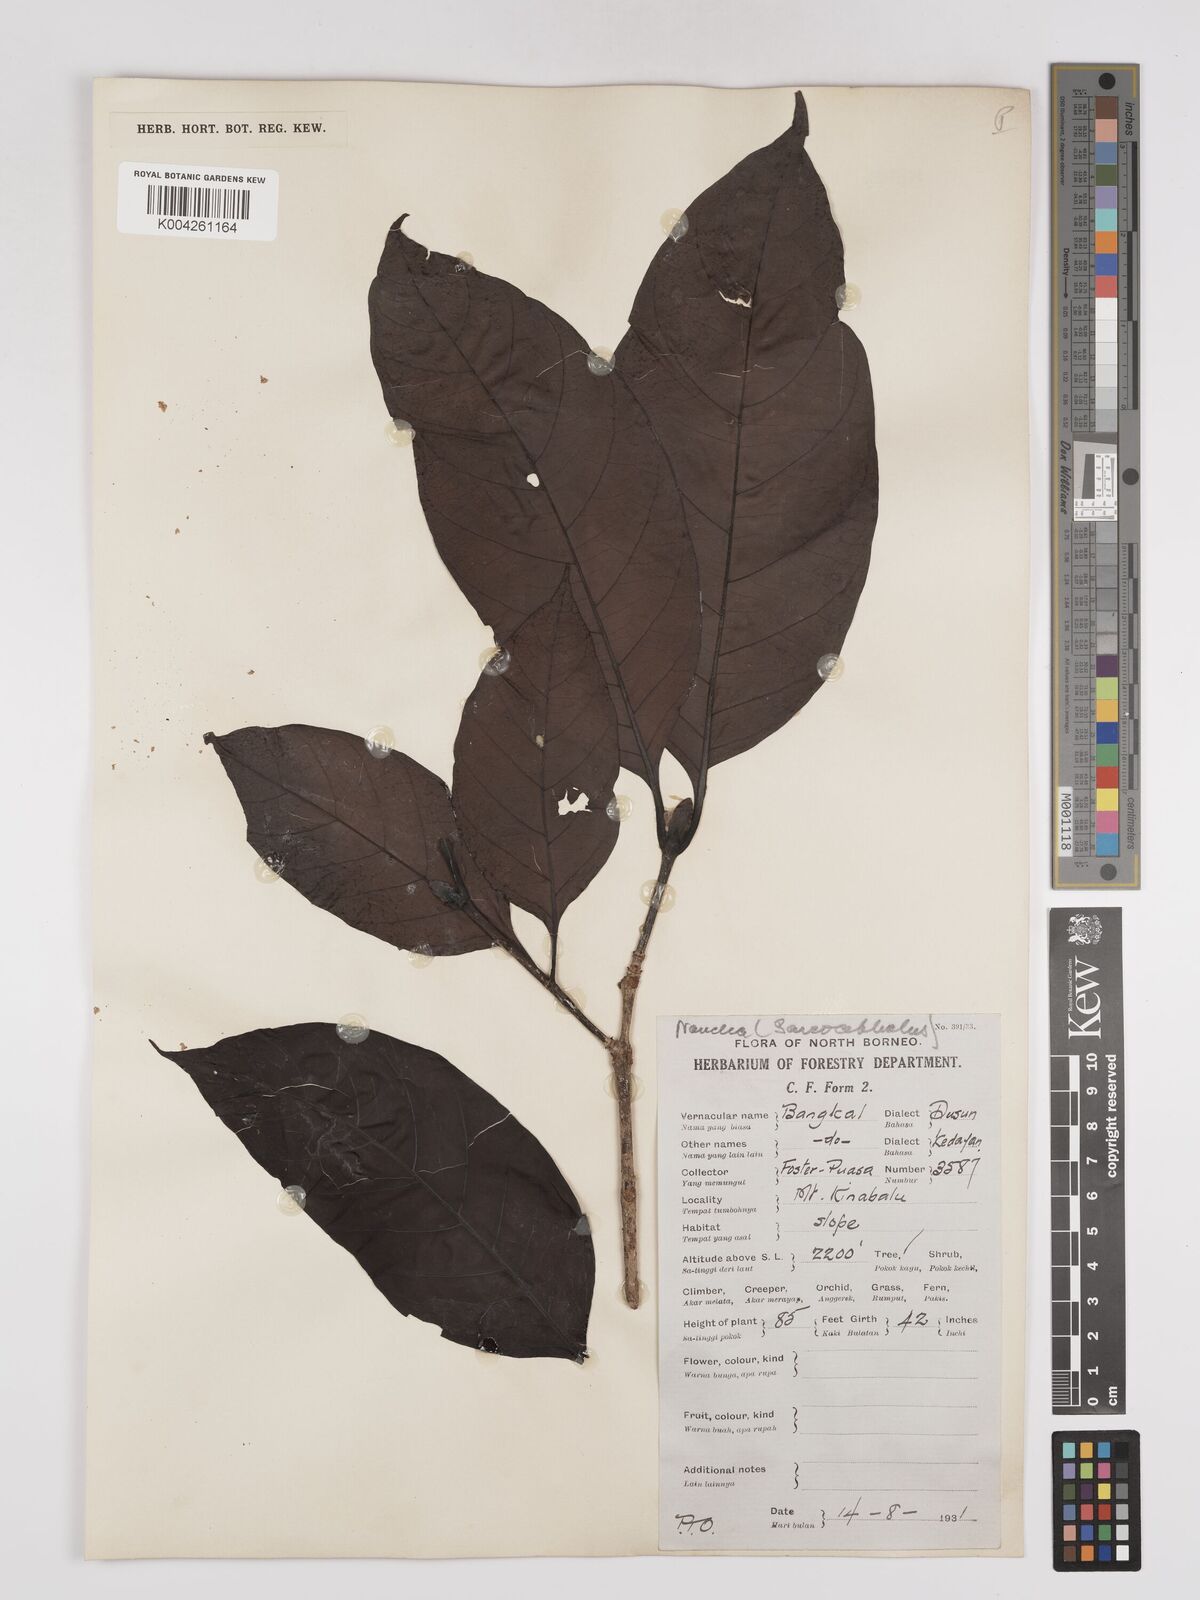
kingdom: Plantae
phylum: Tracheophyta
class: Magnoliopsida
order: Gentianales
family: Rubiaceae
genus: Neonauclea
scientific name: Neonauclea
